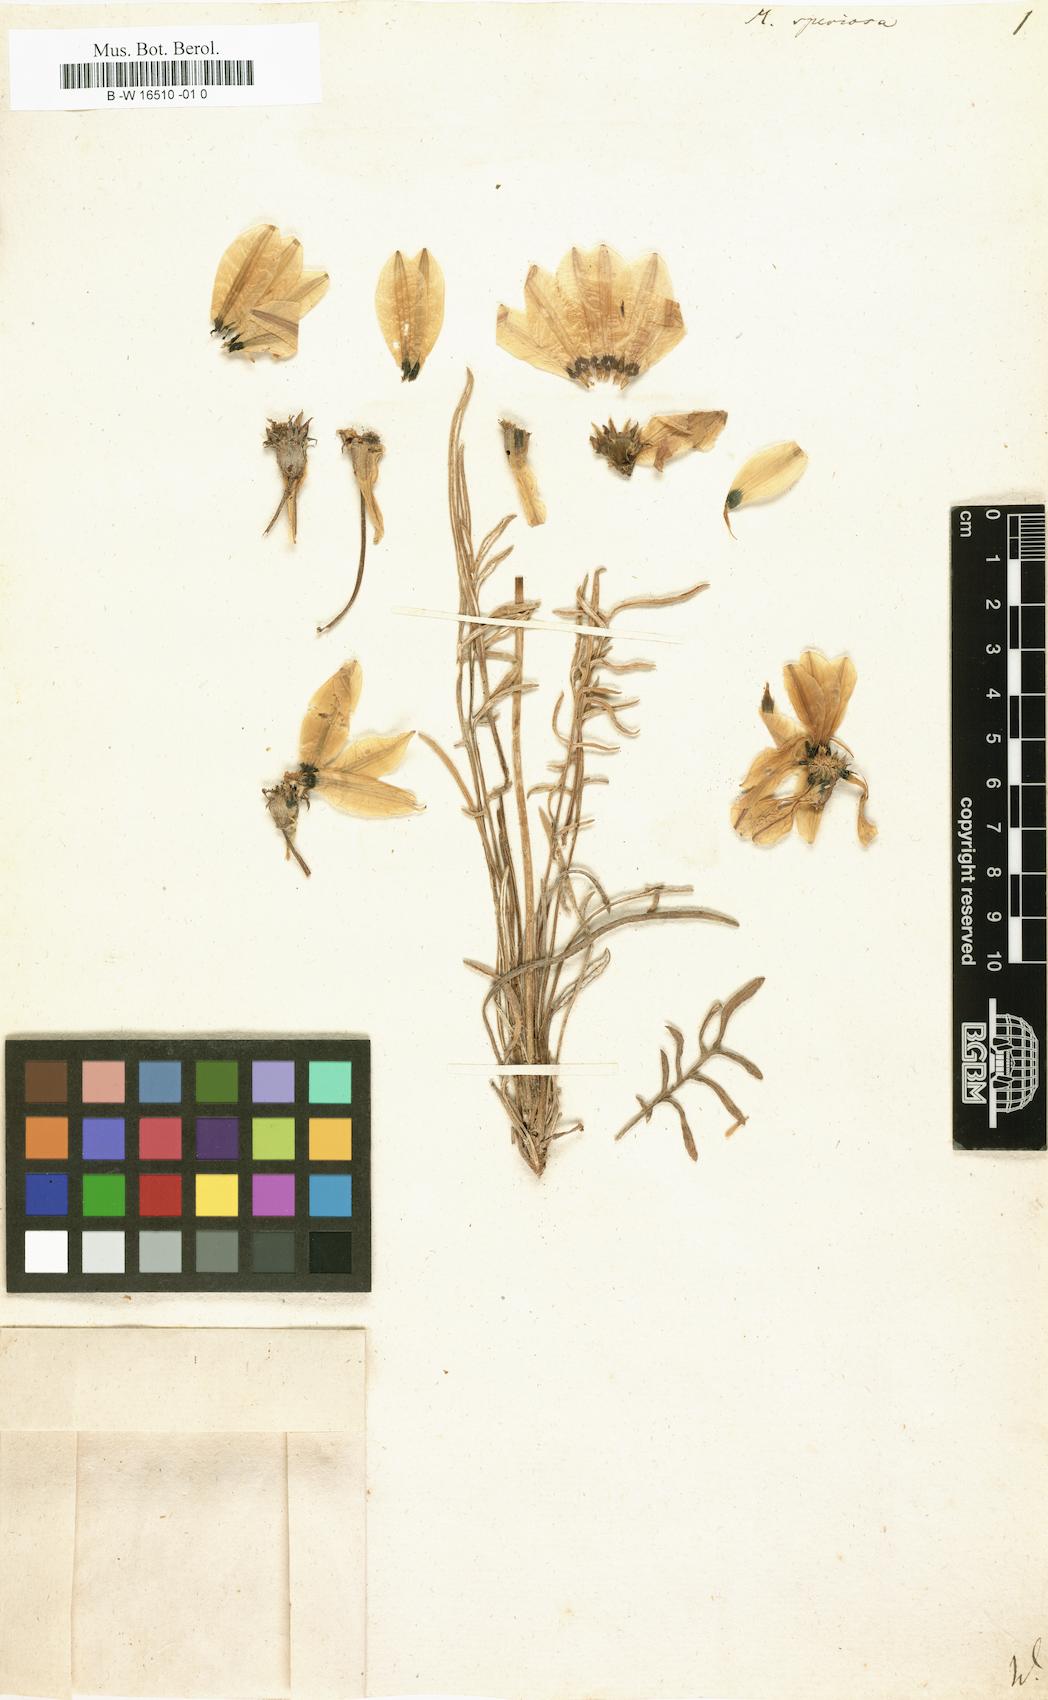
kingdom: Plantae
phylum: Tracheophyta
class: Magnoliopsida
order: Asterales
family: Asteraceae
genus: Gazania
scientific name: Gazania pectinata
